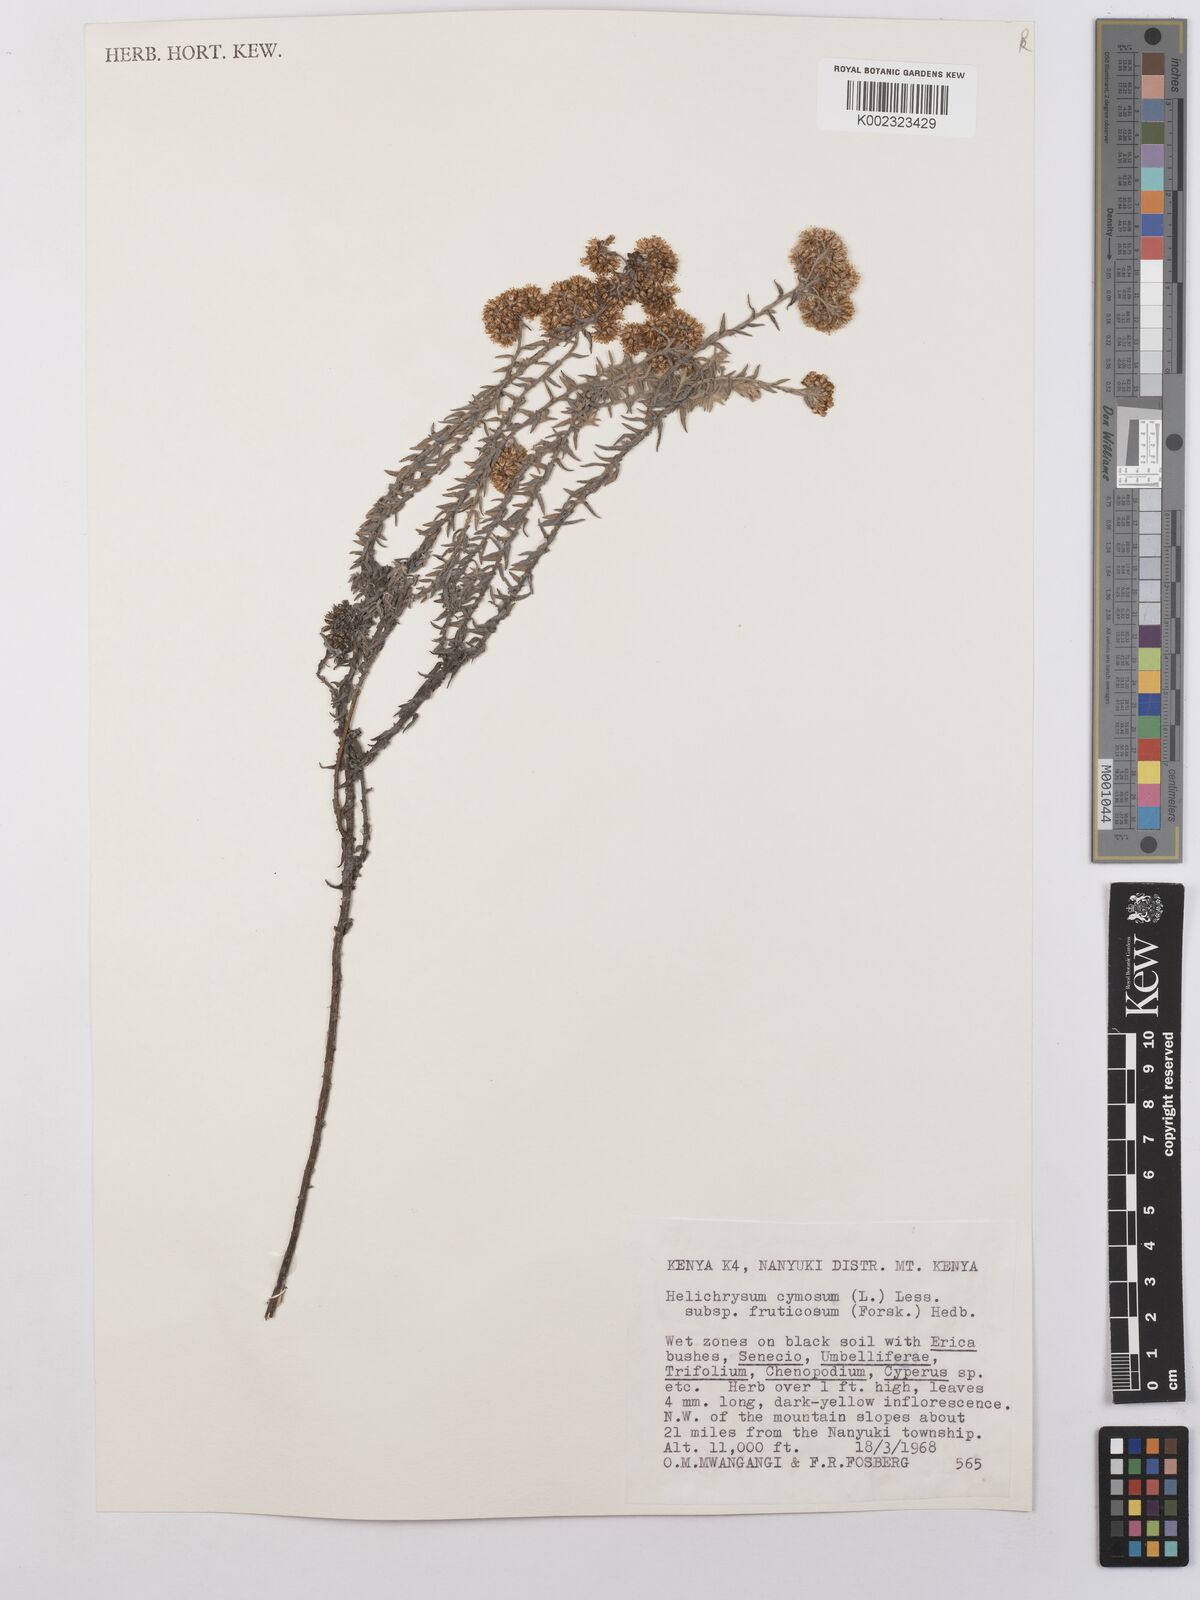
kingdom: Plantae
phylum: Tracheophyta
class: Magnoliopsida
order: Asterales
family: Asteraceae
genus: Helichrysum
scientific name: Helichrysum forskahlii
